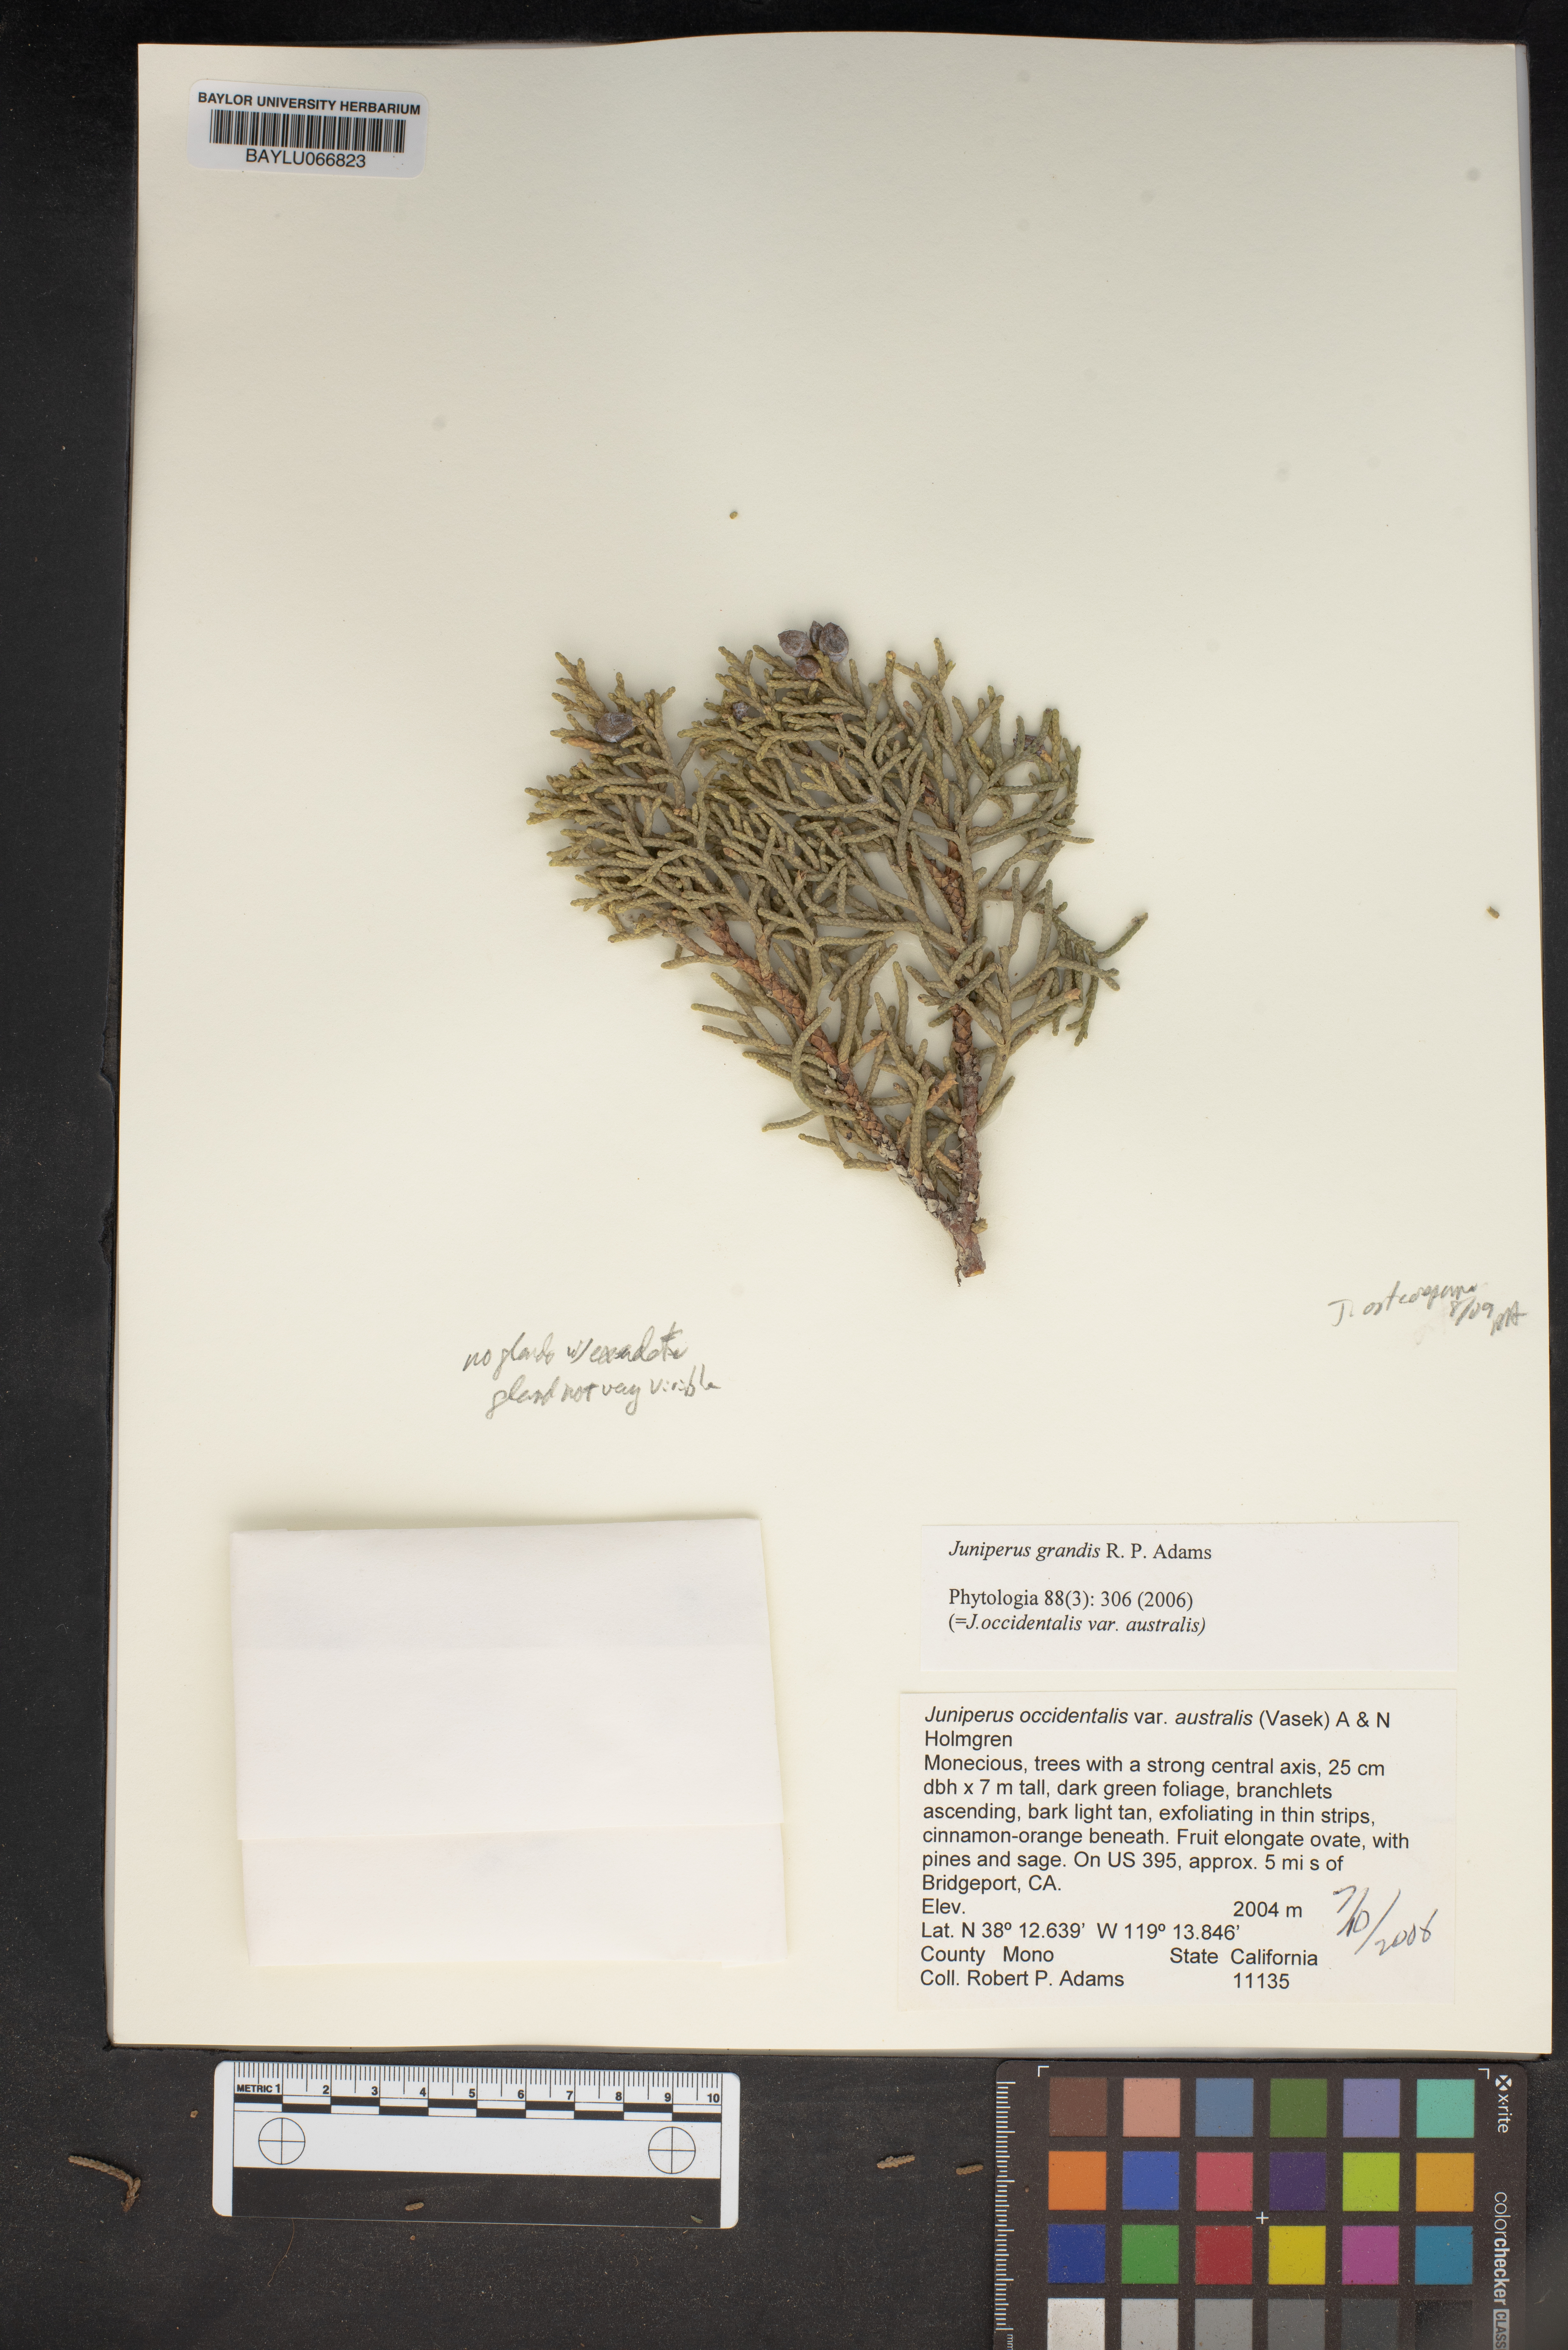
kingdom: Plantae
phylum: Tracheophyta
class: Pinopsida
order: Pinales
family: Cupressaceae
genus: Juniperus
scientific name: Juniperus occidentalis
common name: Western juniper
